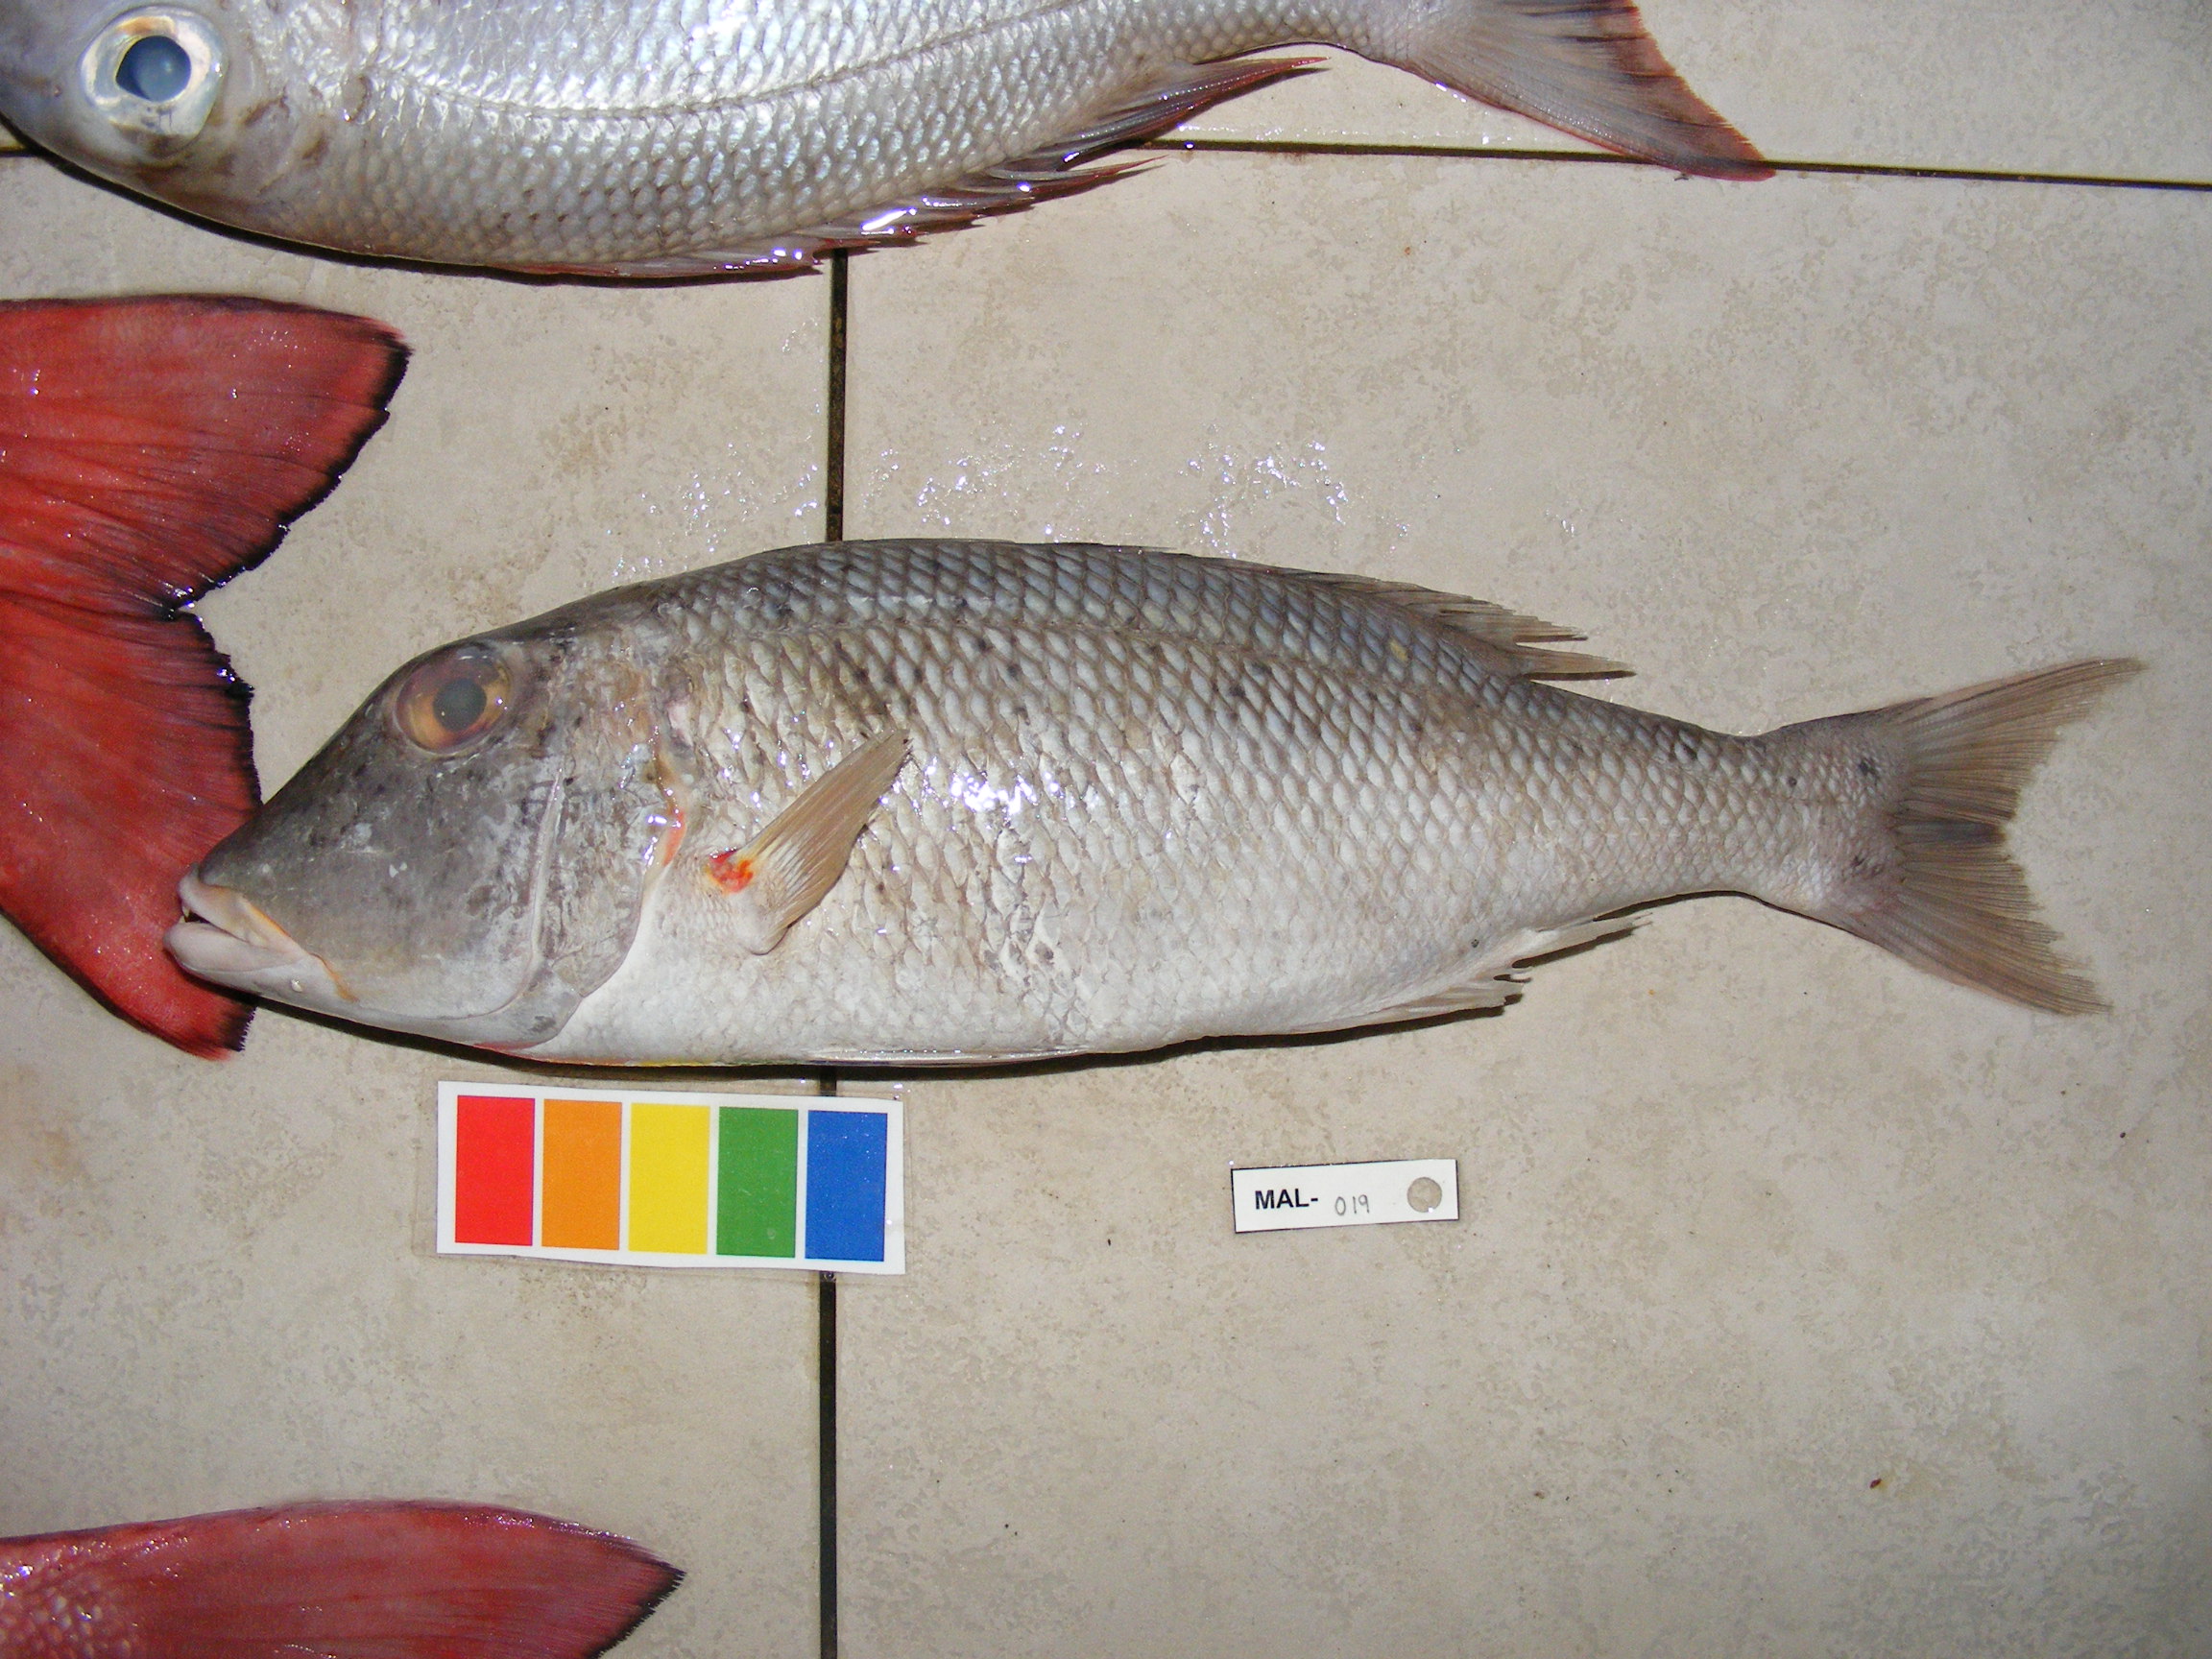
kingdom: Animalia
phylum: Chordata
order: Perciformes
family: Lethrinidae
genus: Lethrinus
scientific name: Lethrinus
